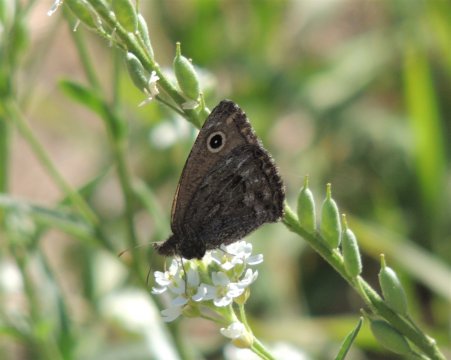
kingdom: Animalia
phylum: Arthropoda
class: Insecta
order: Lepidoptera
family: Nymphalidae
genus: Cercyonis
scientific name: Cercyonis oetus
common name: Small Wood-Nymph
